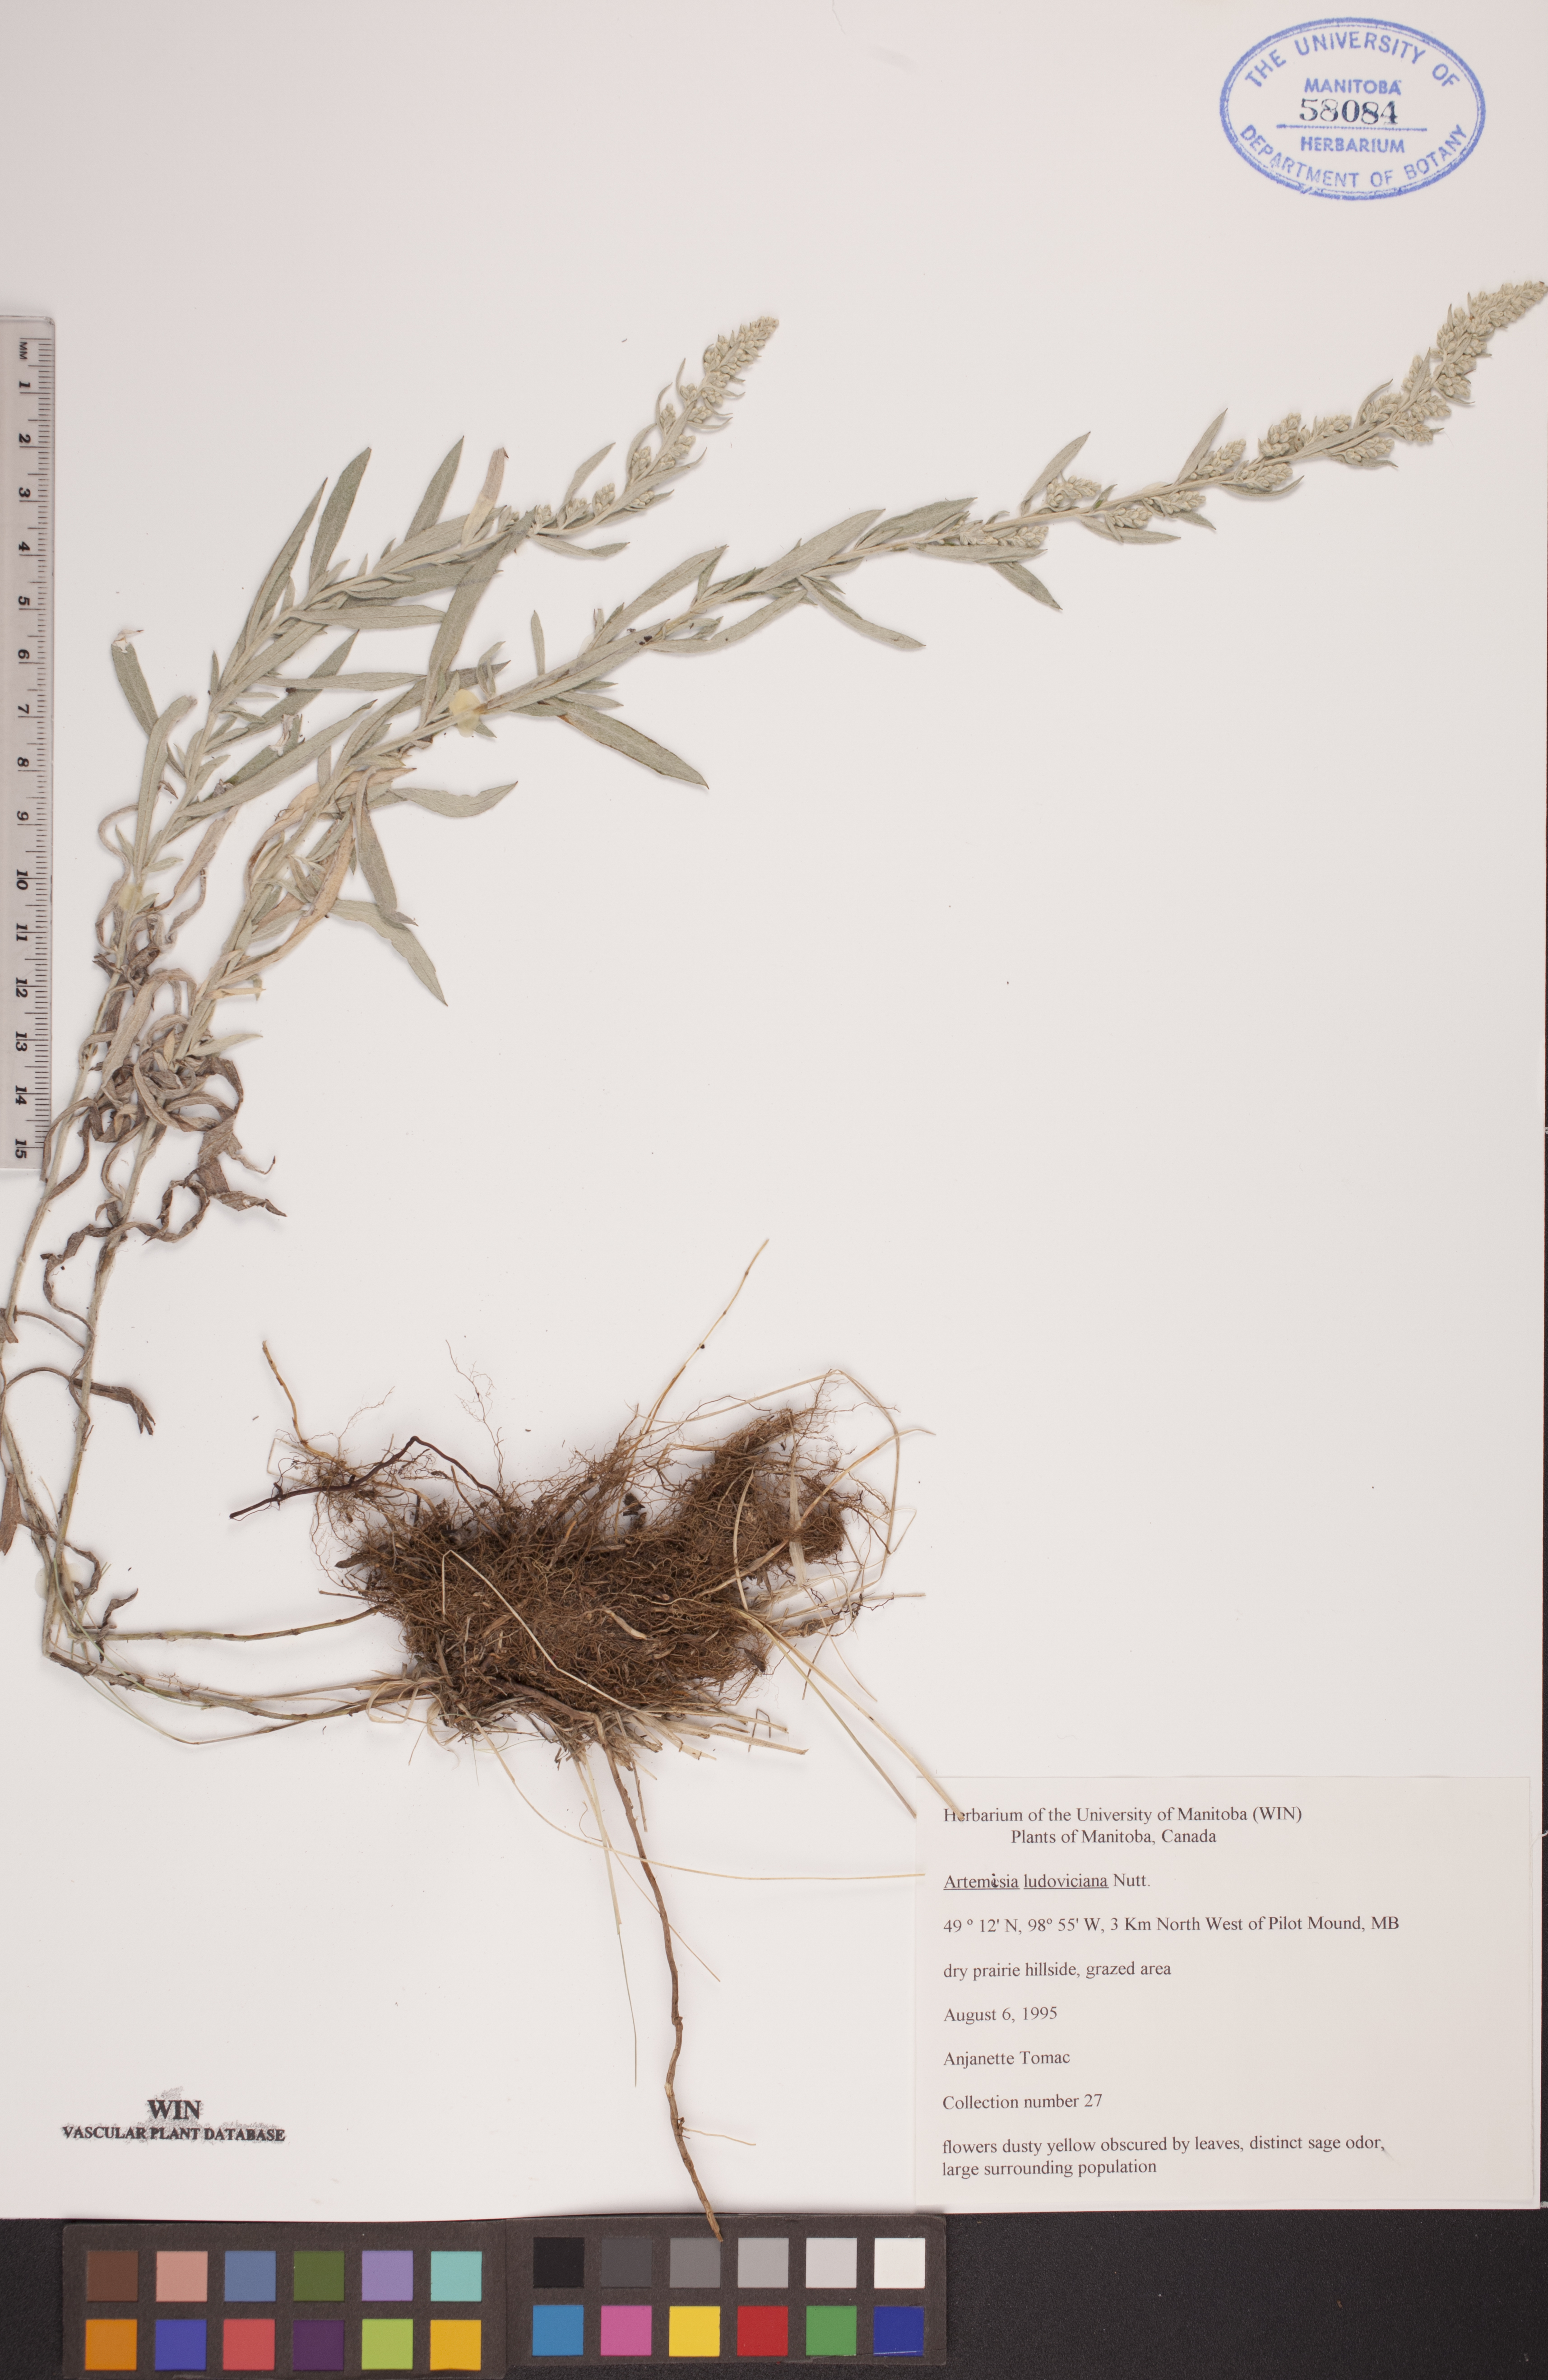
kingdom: Plantae
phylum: Tracheophyta
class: Magnoliopsida
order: Asterales
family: Asteraceae
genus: Artemisia
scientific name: Artemisia ludoviciana
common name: Western mugwort
